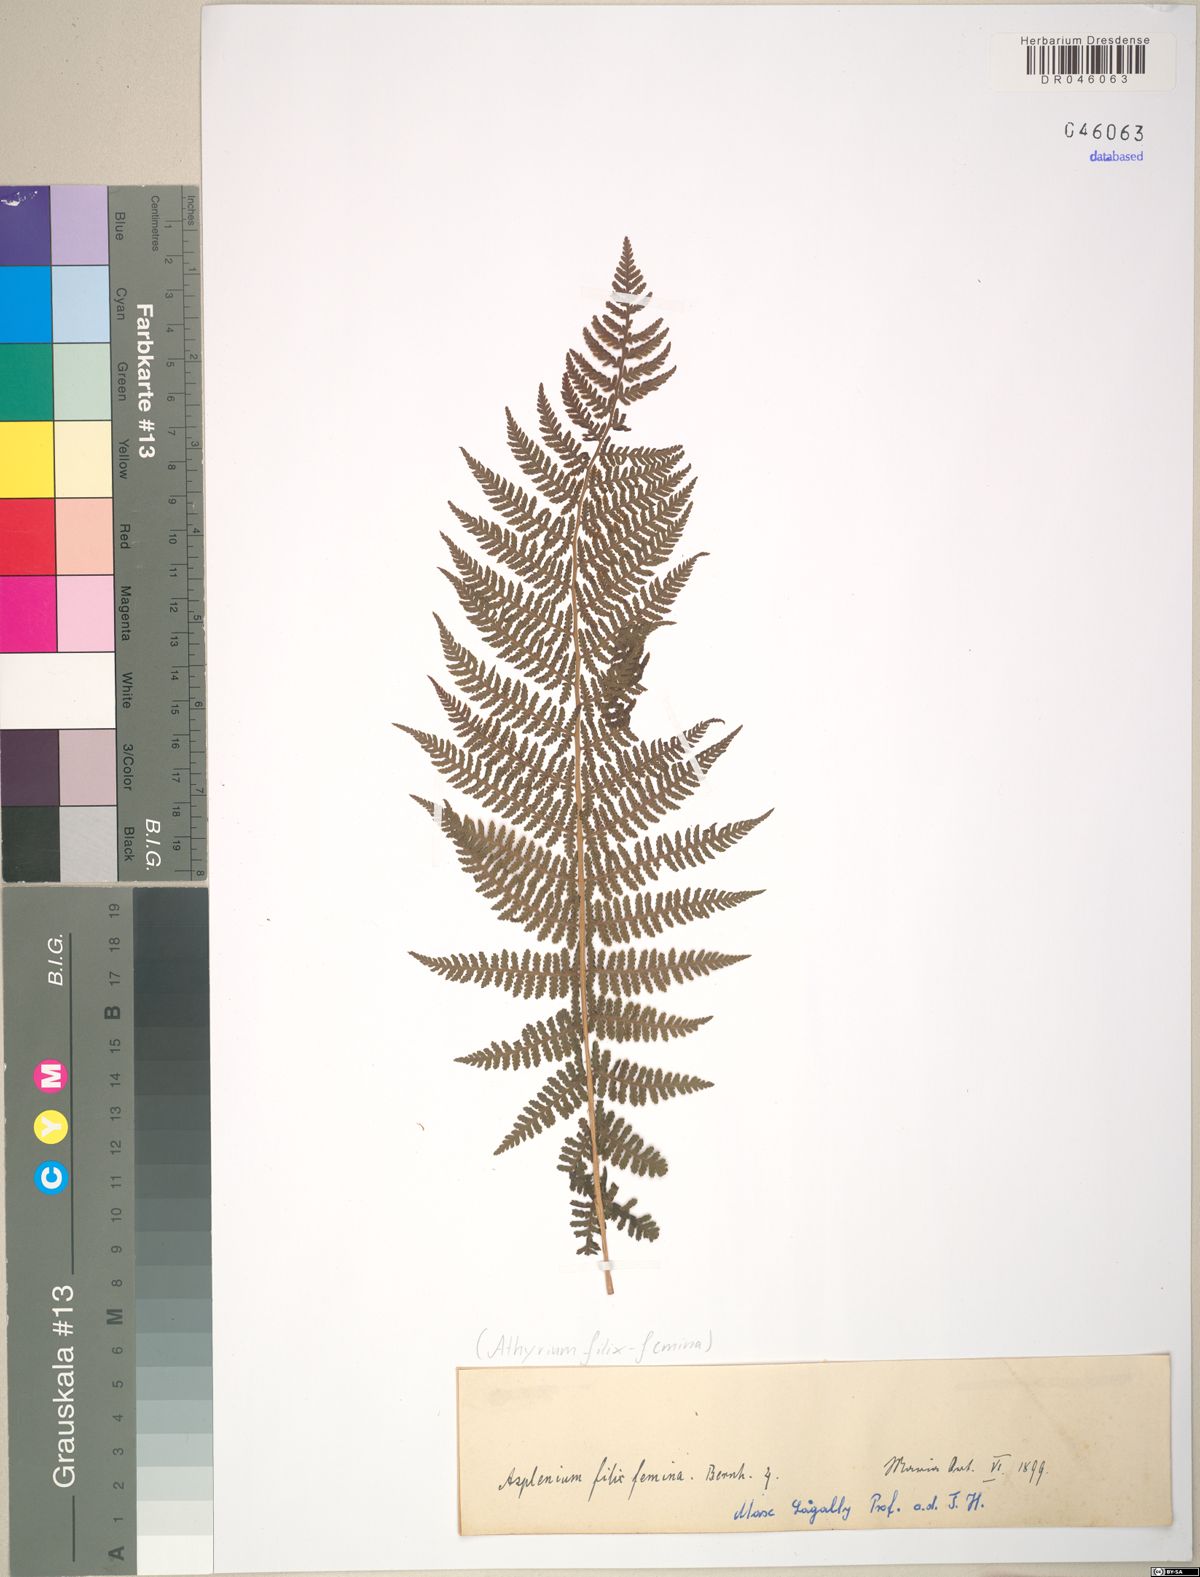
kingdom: Plantae
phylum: Tracheophyta
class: Polypodiopsida
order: Polypodiales
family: Athyriaceae
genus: Athyrium
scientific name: Athyrium filix-femina
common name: Lady fern
